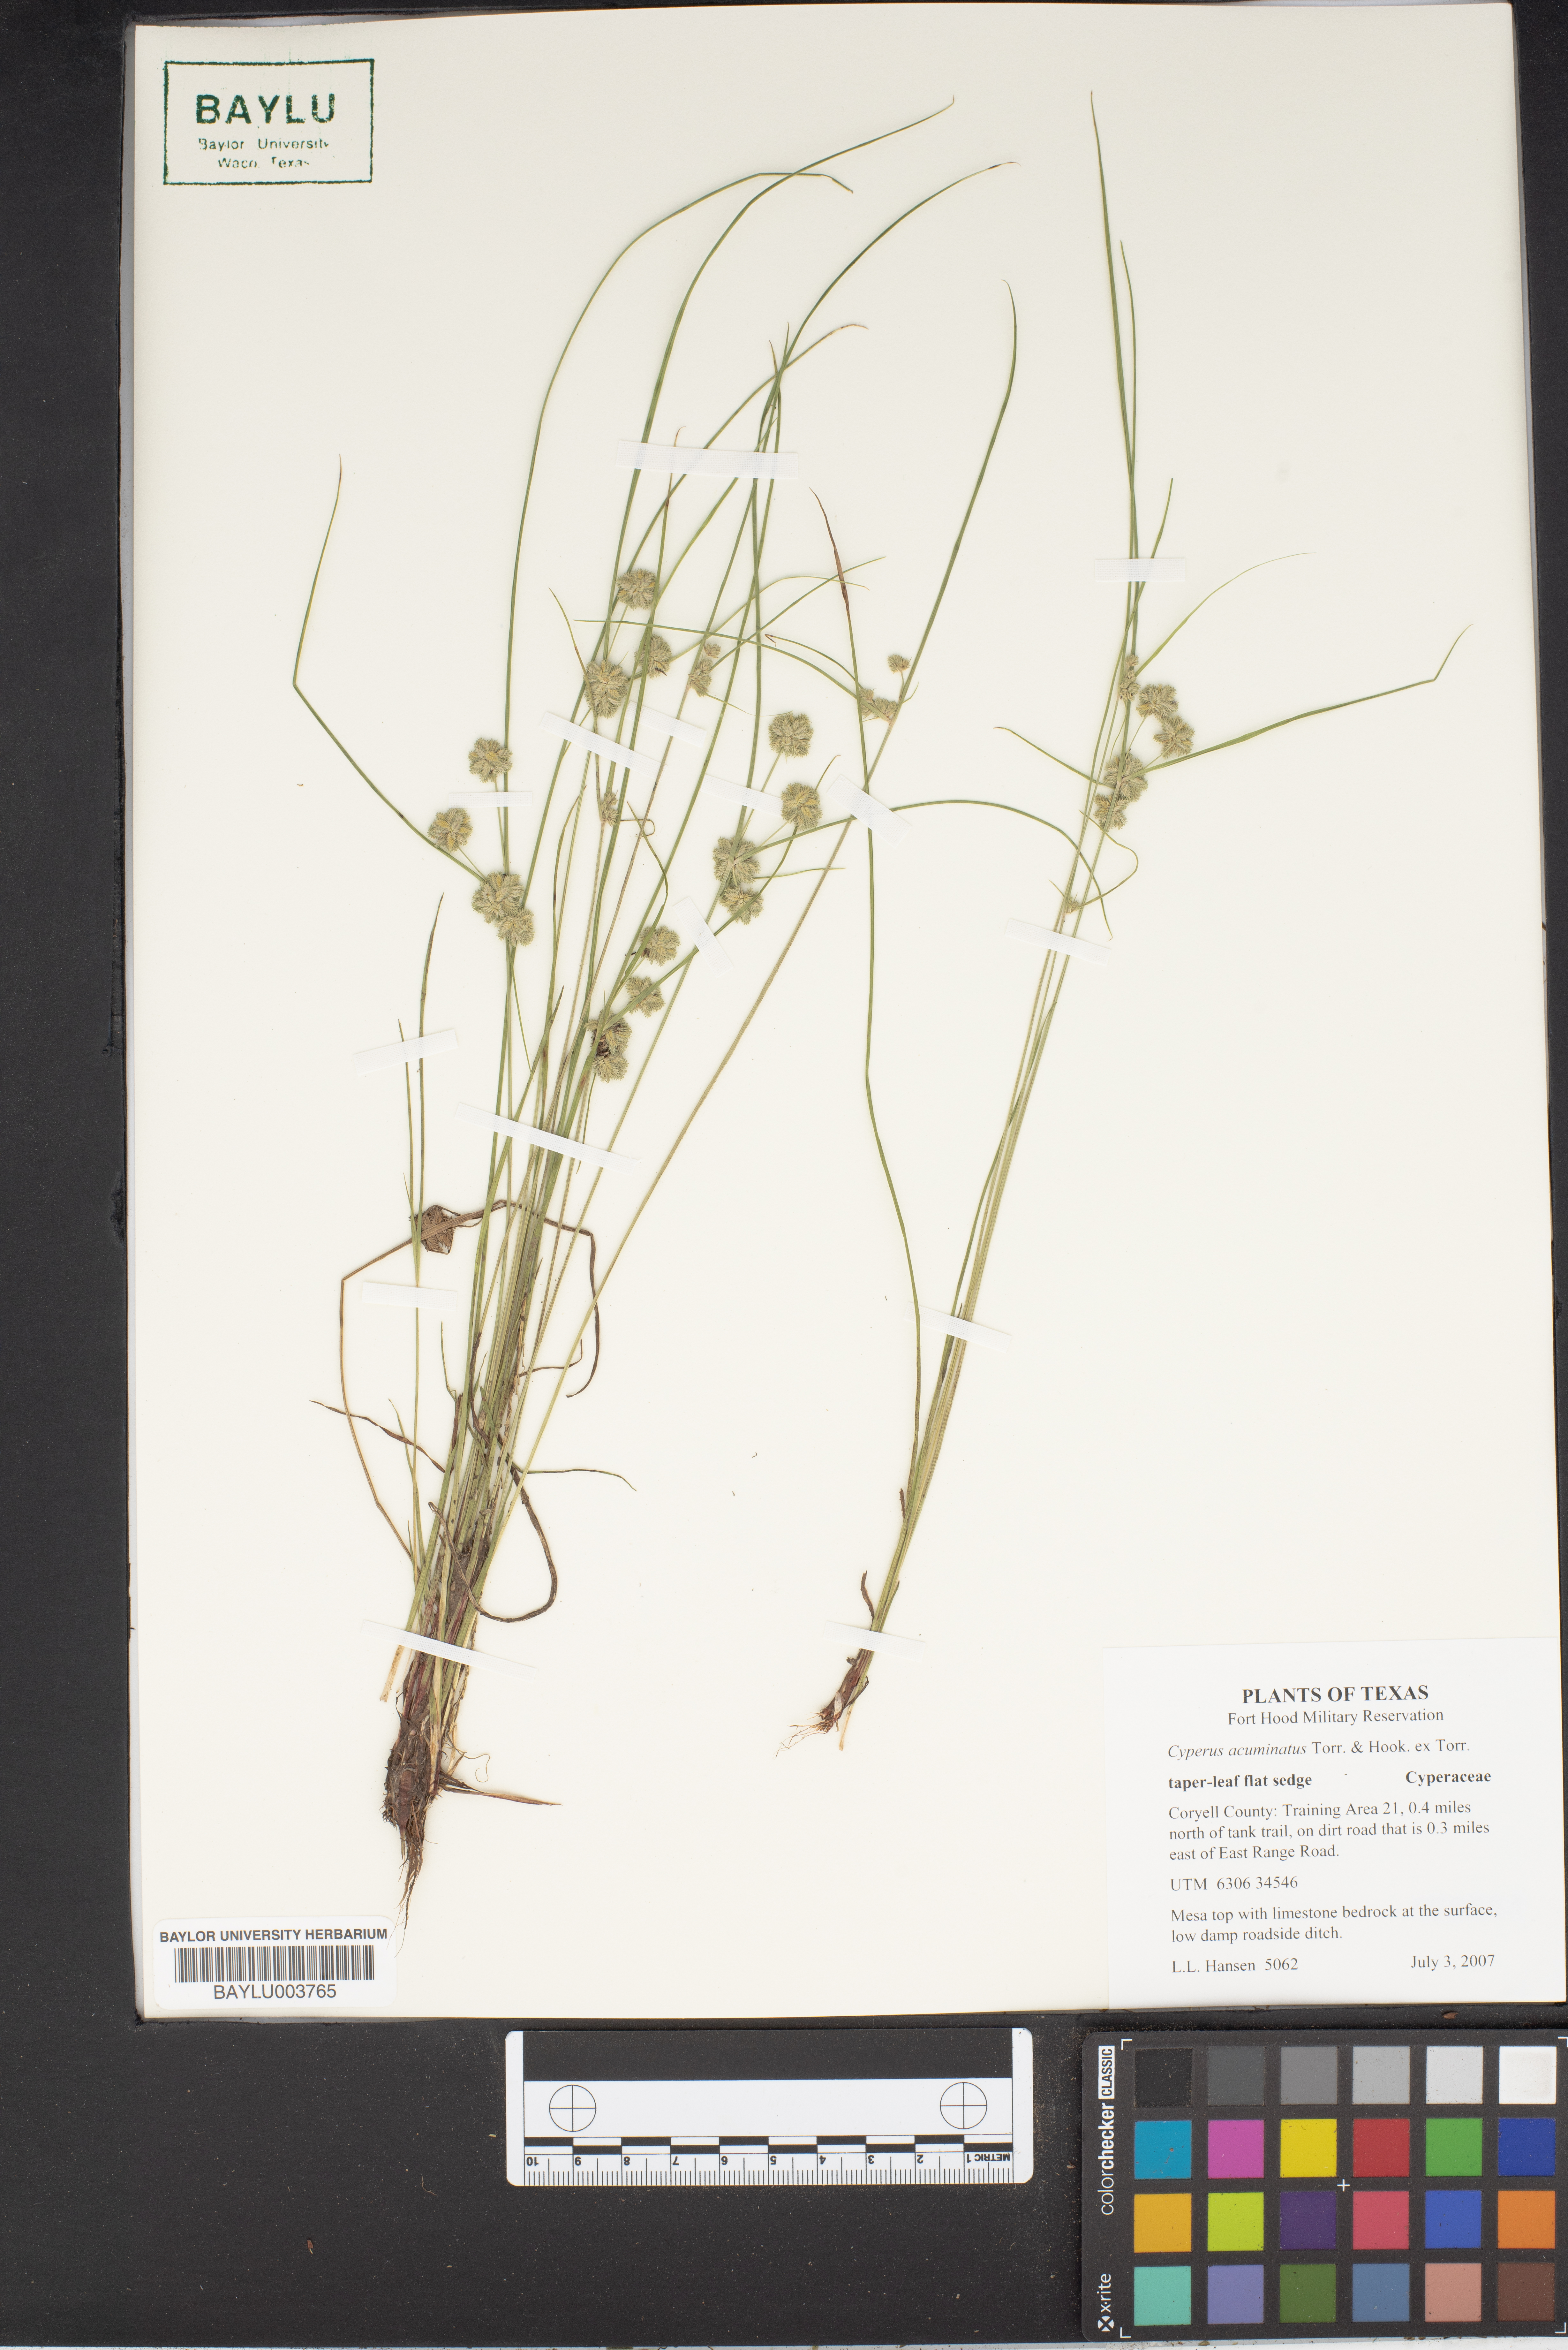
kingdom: Plantae
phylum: Tracheophyta
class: Liliopsida
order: Poales
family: Cyperaceae
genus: Cyperus
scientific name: Cyperus acuminatus
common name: Short-pointed cyperus
